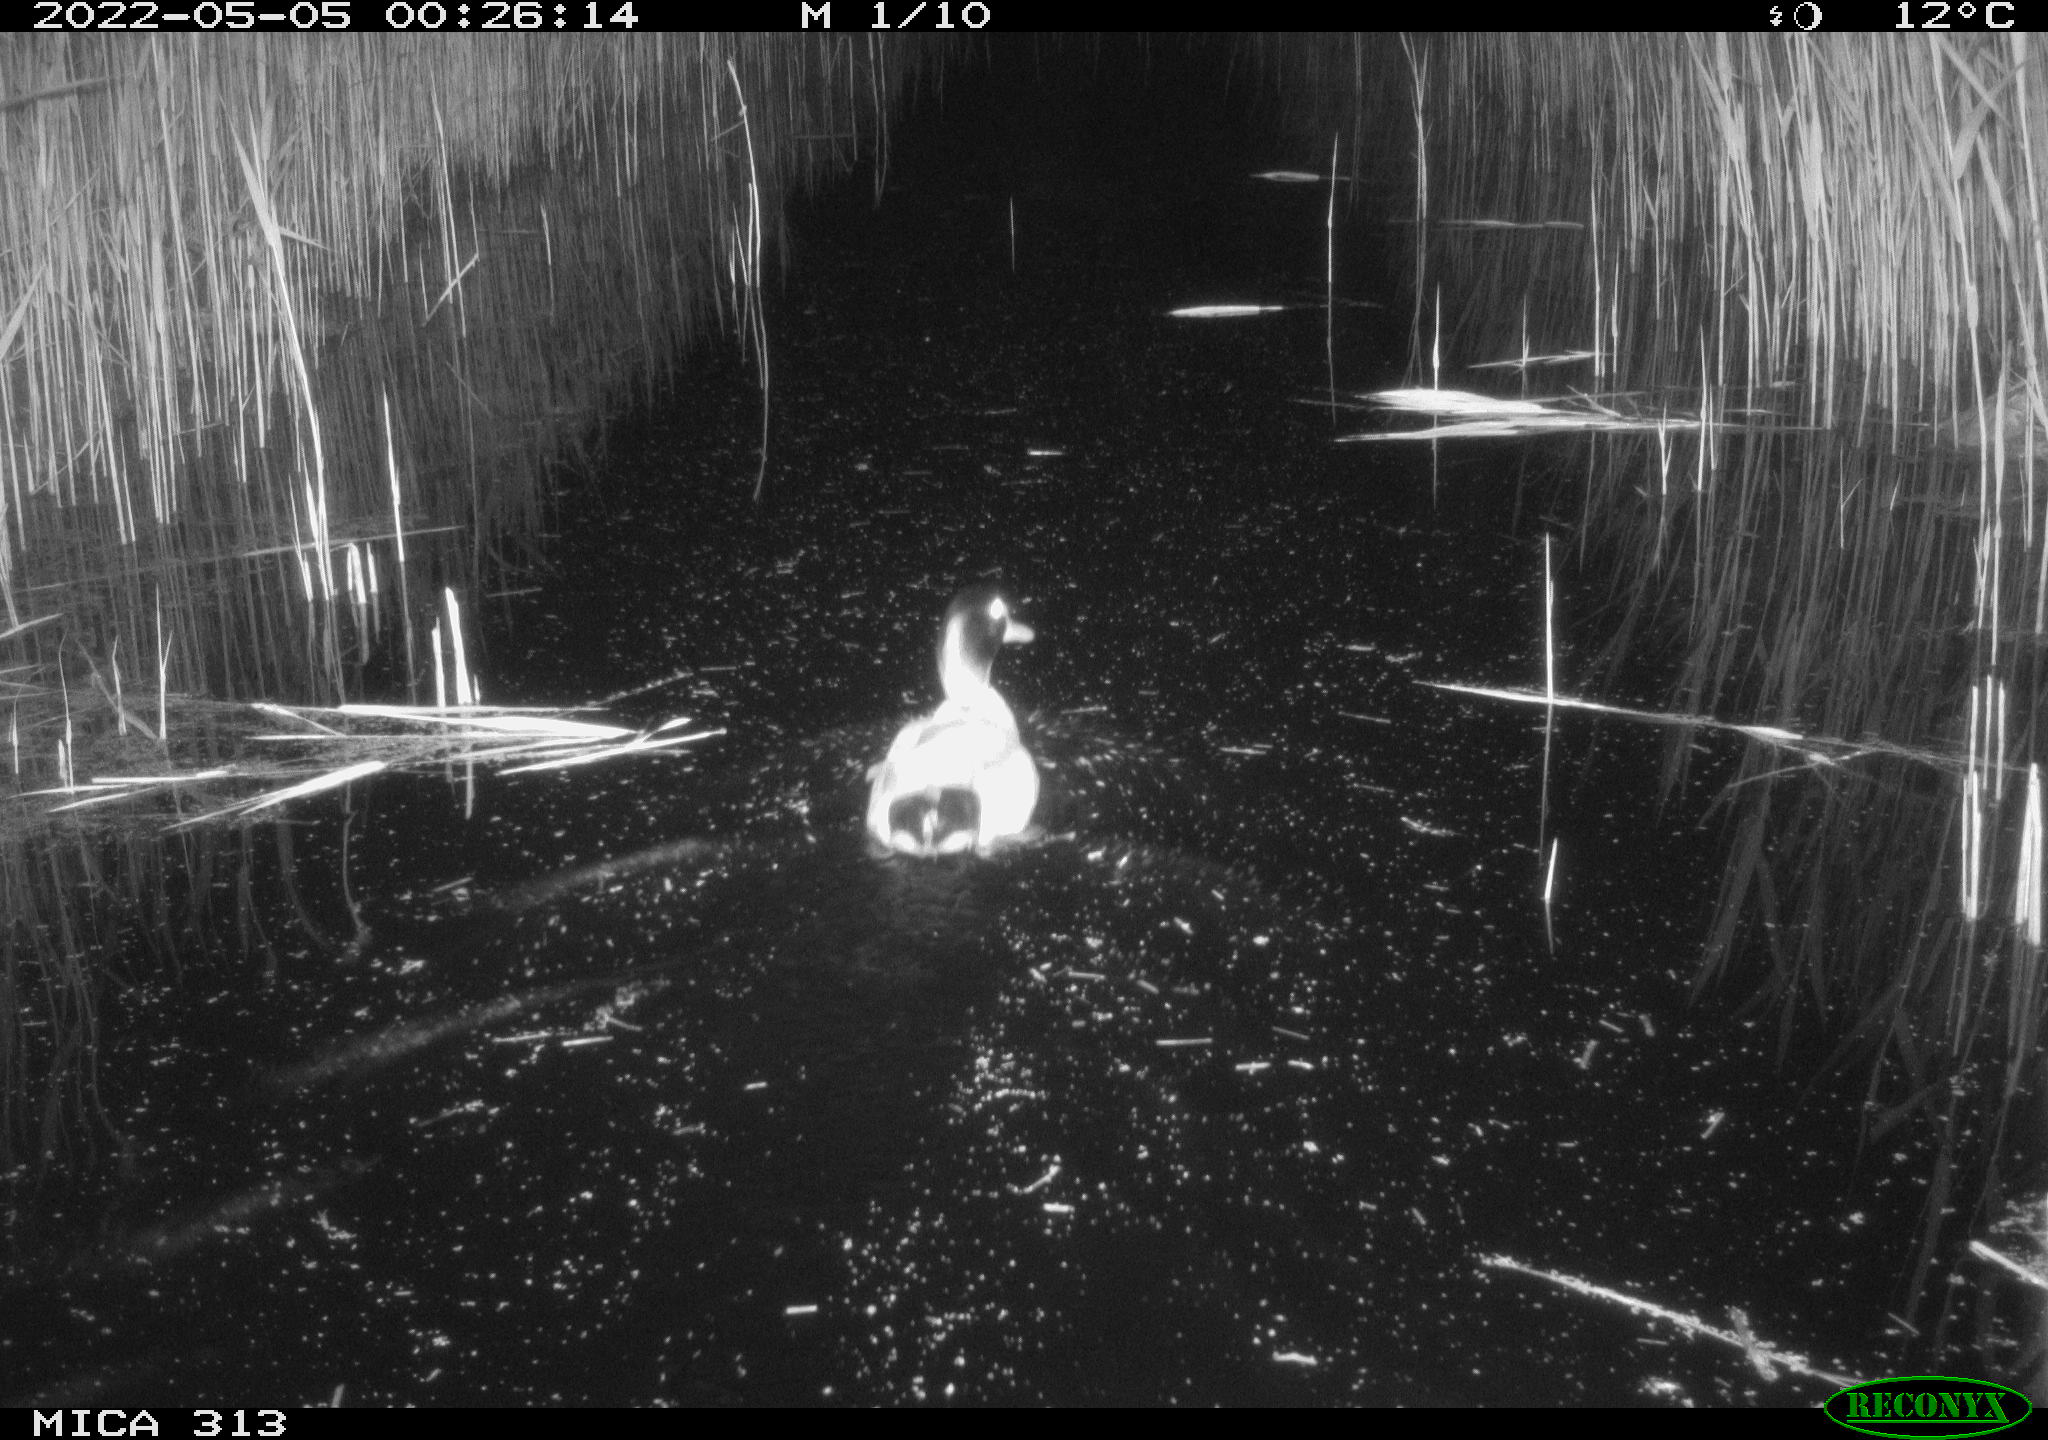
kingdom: Animalia
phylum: Chordata
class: Aves
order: Anseriformes
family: Anatidae
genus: Anas
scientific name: Anas platyrhynchos
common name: Mallard
